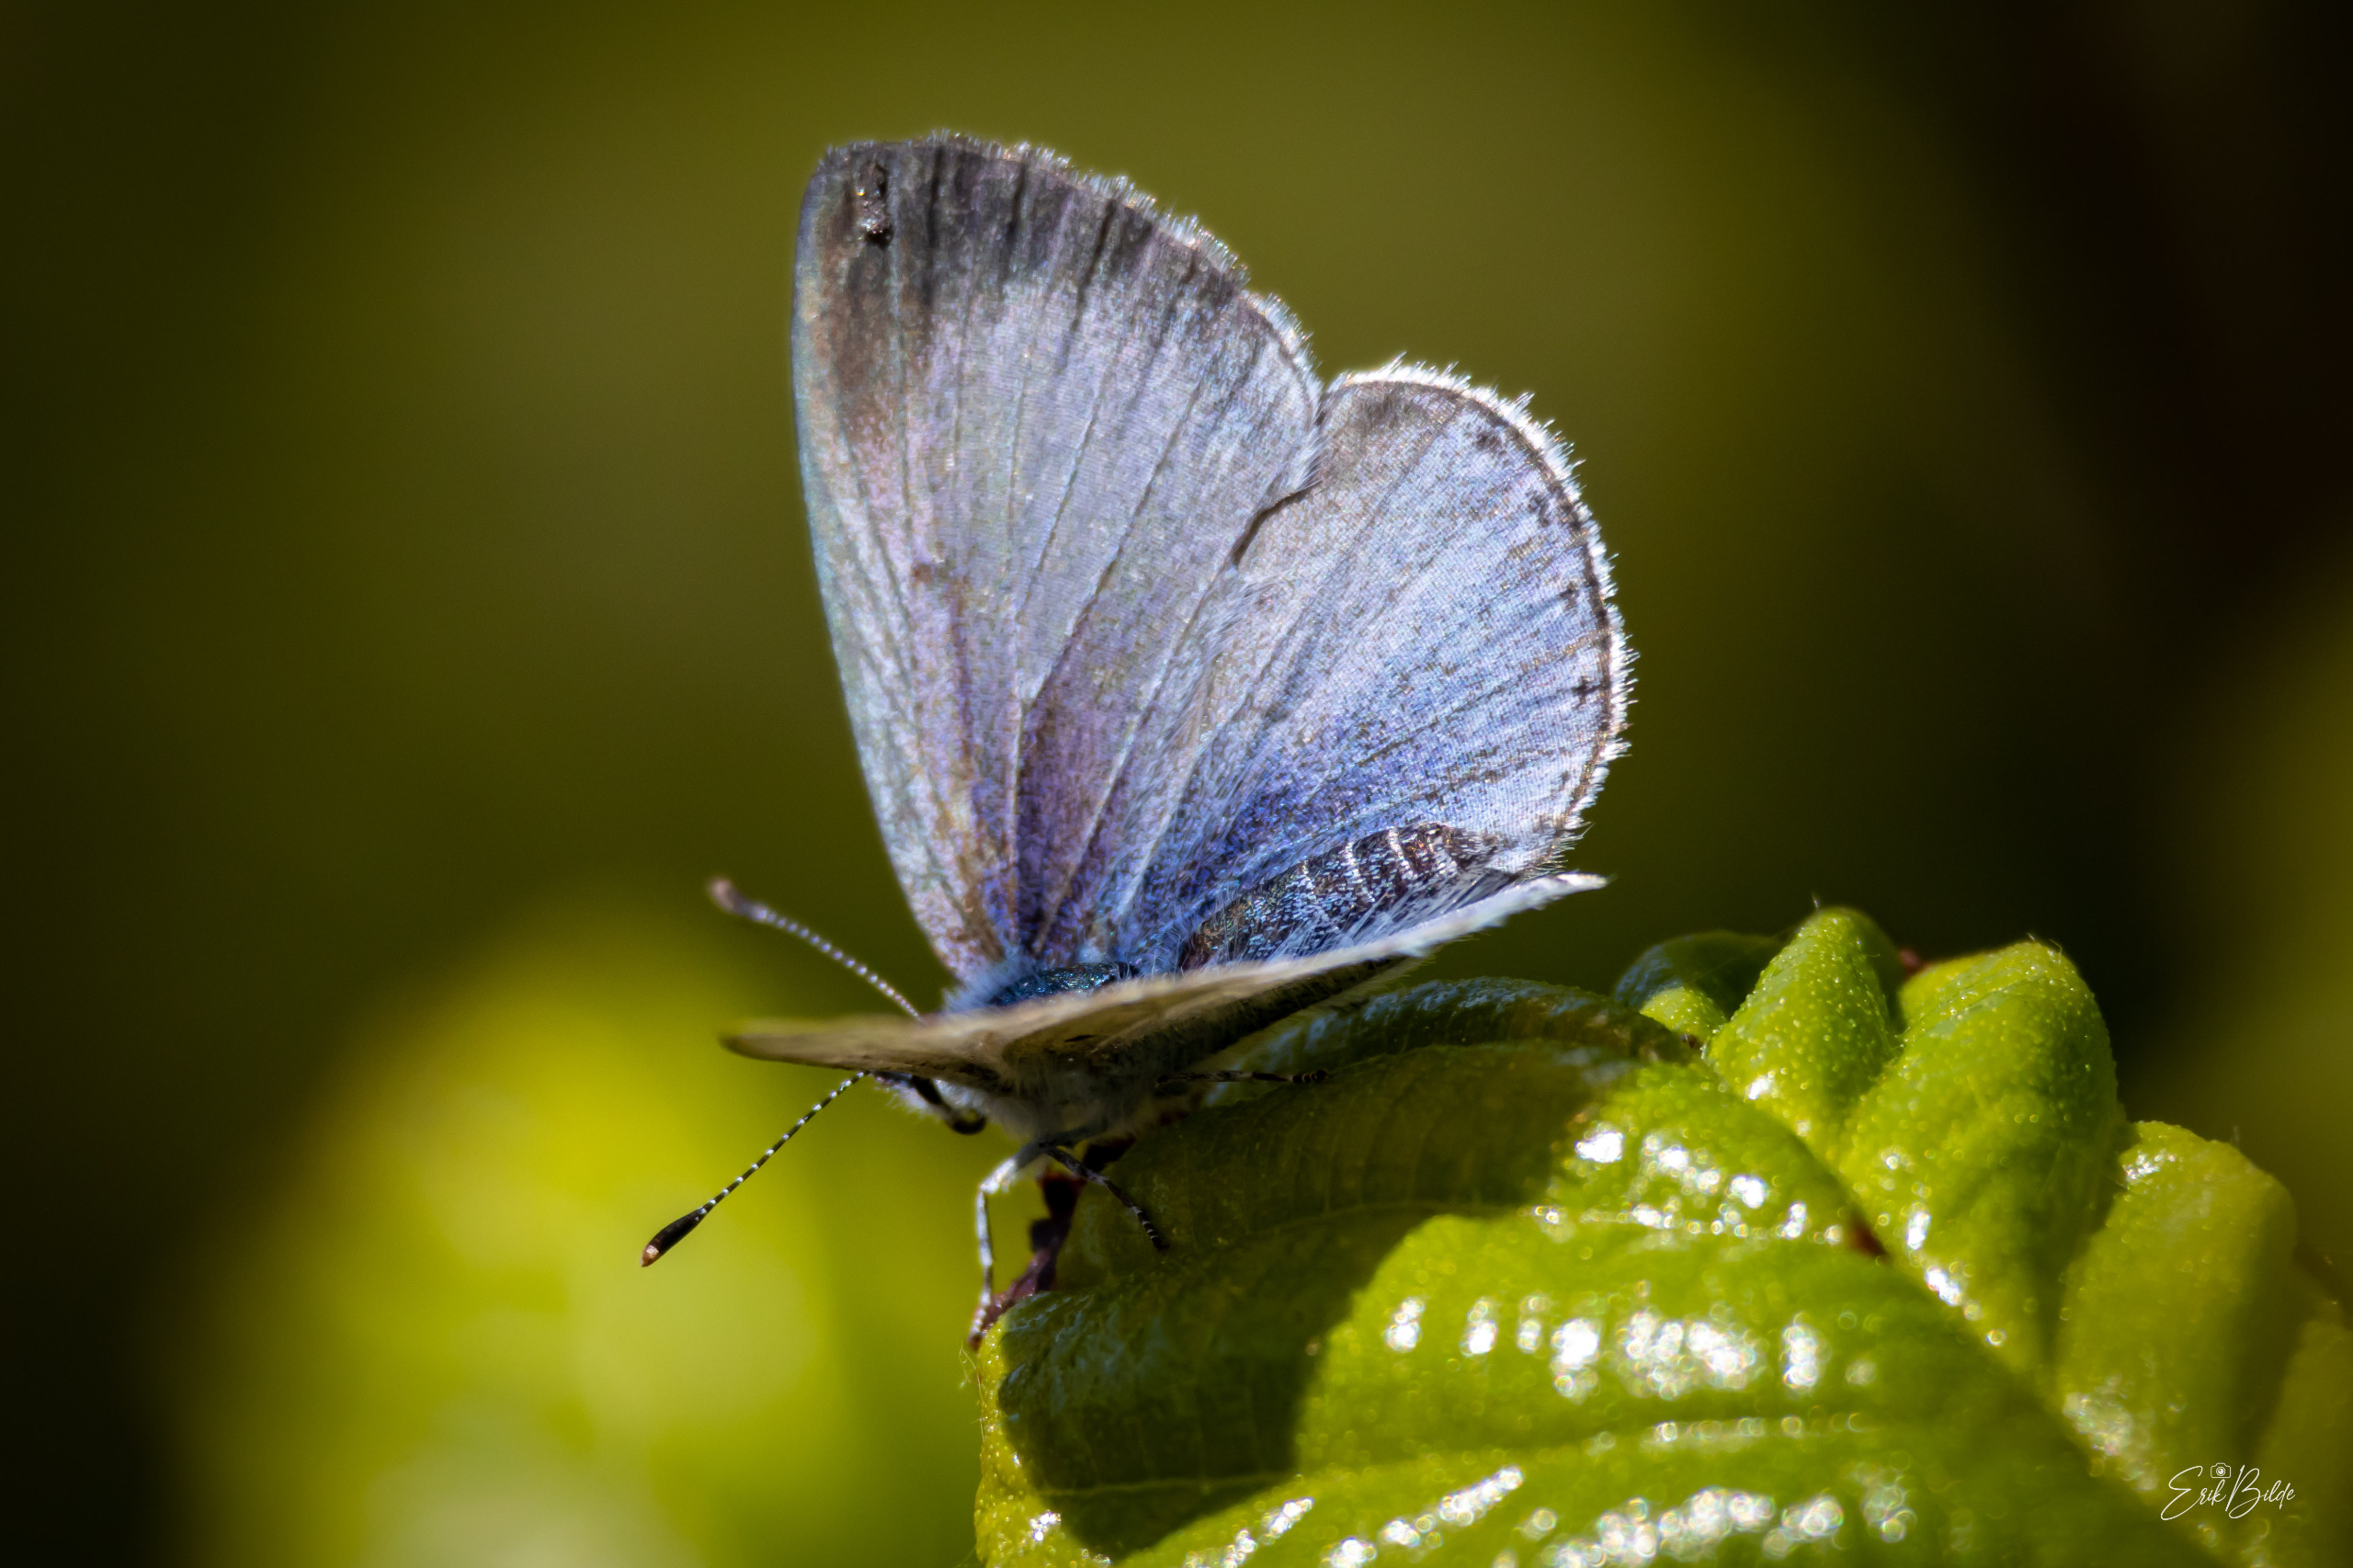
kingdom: Animalia
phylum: Arthropoda
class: Insecta
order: Lepidoptera
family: Lycaenidae
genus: Celastrina
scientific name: Celastrina argiolus
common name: Skovblåfugl
